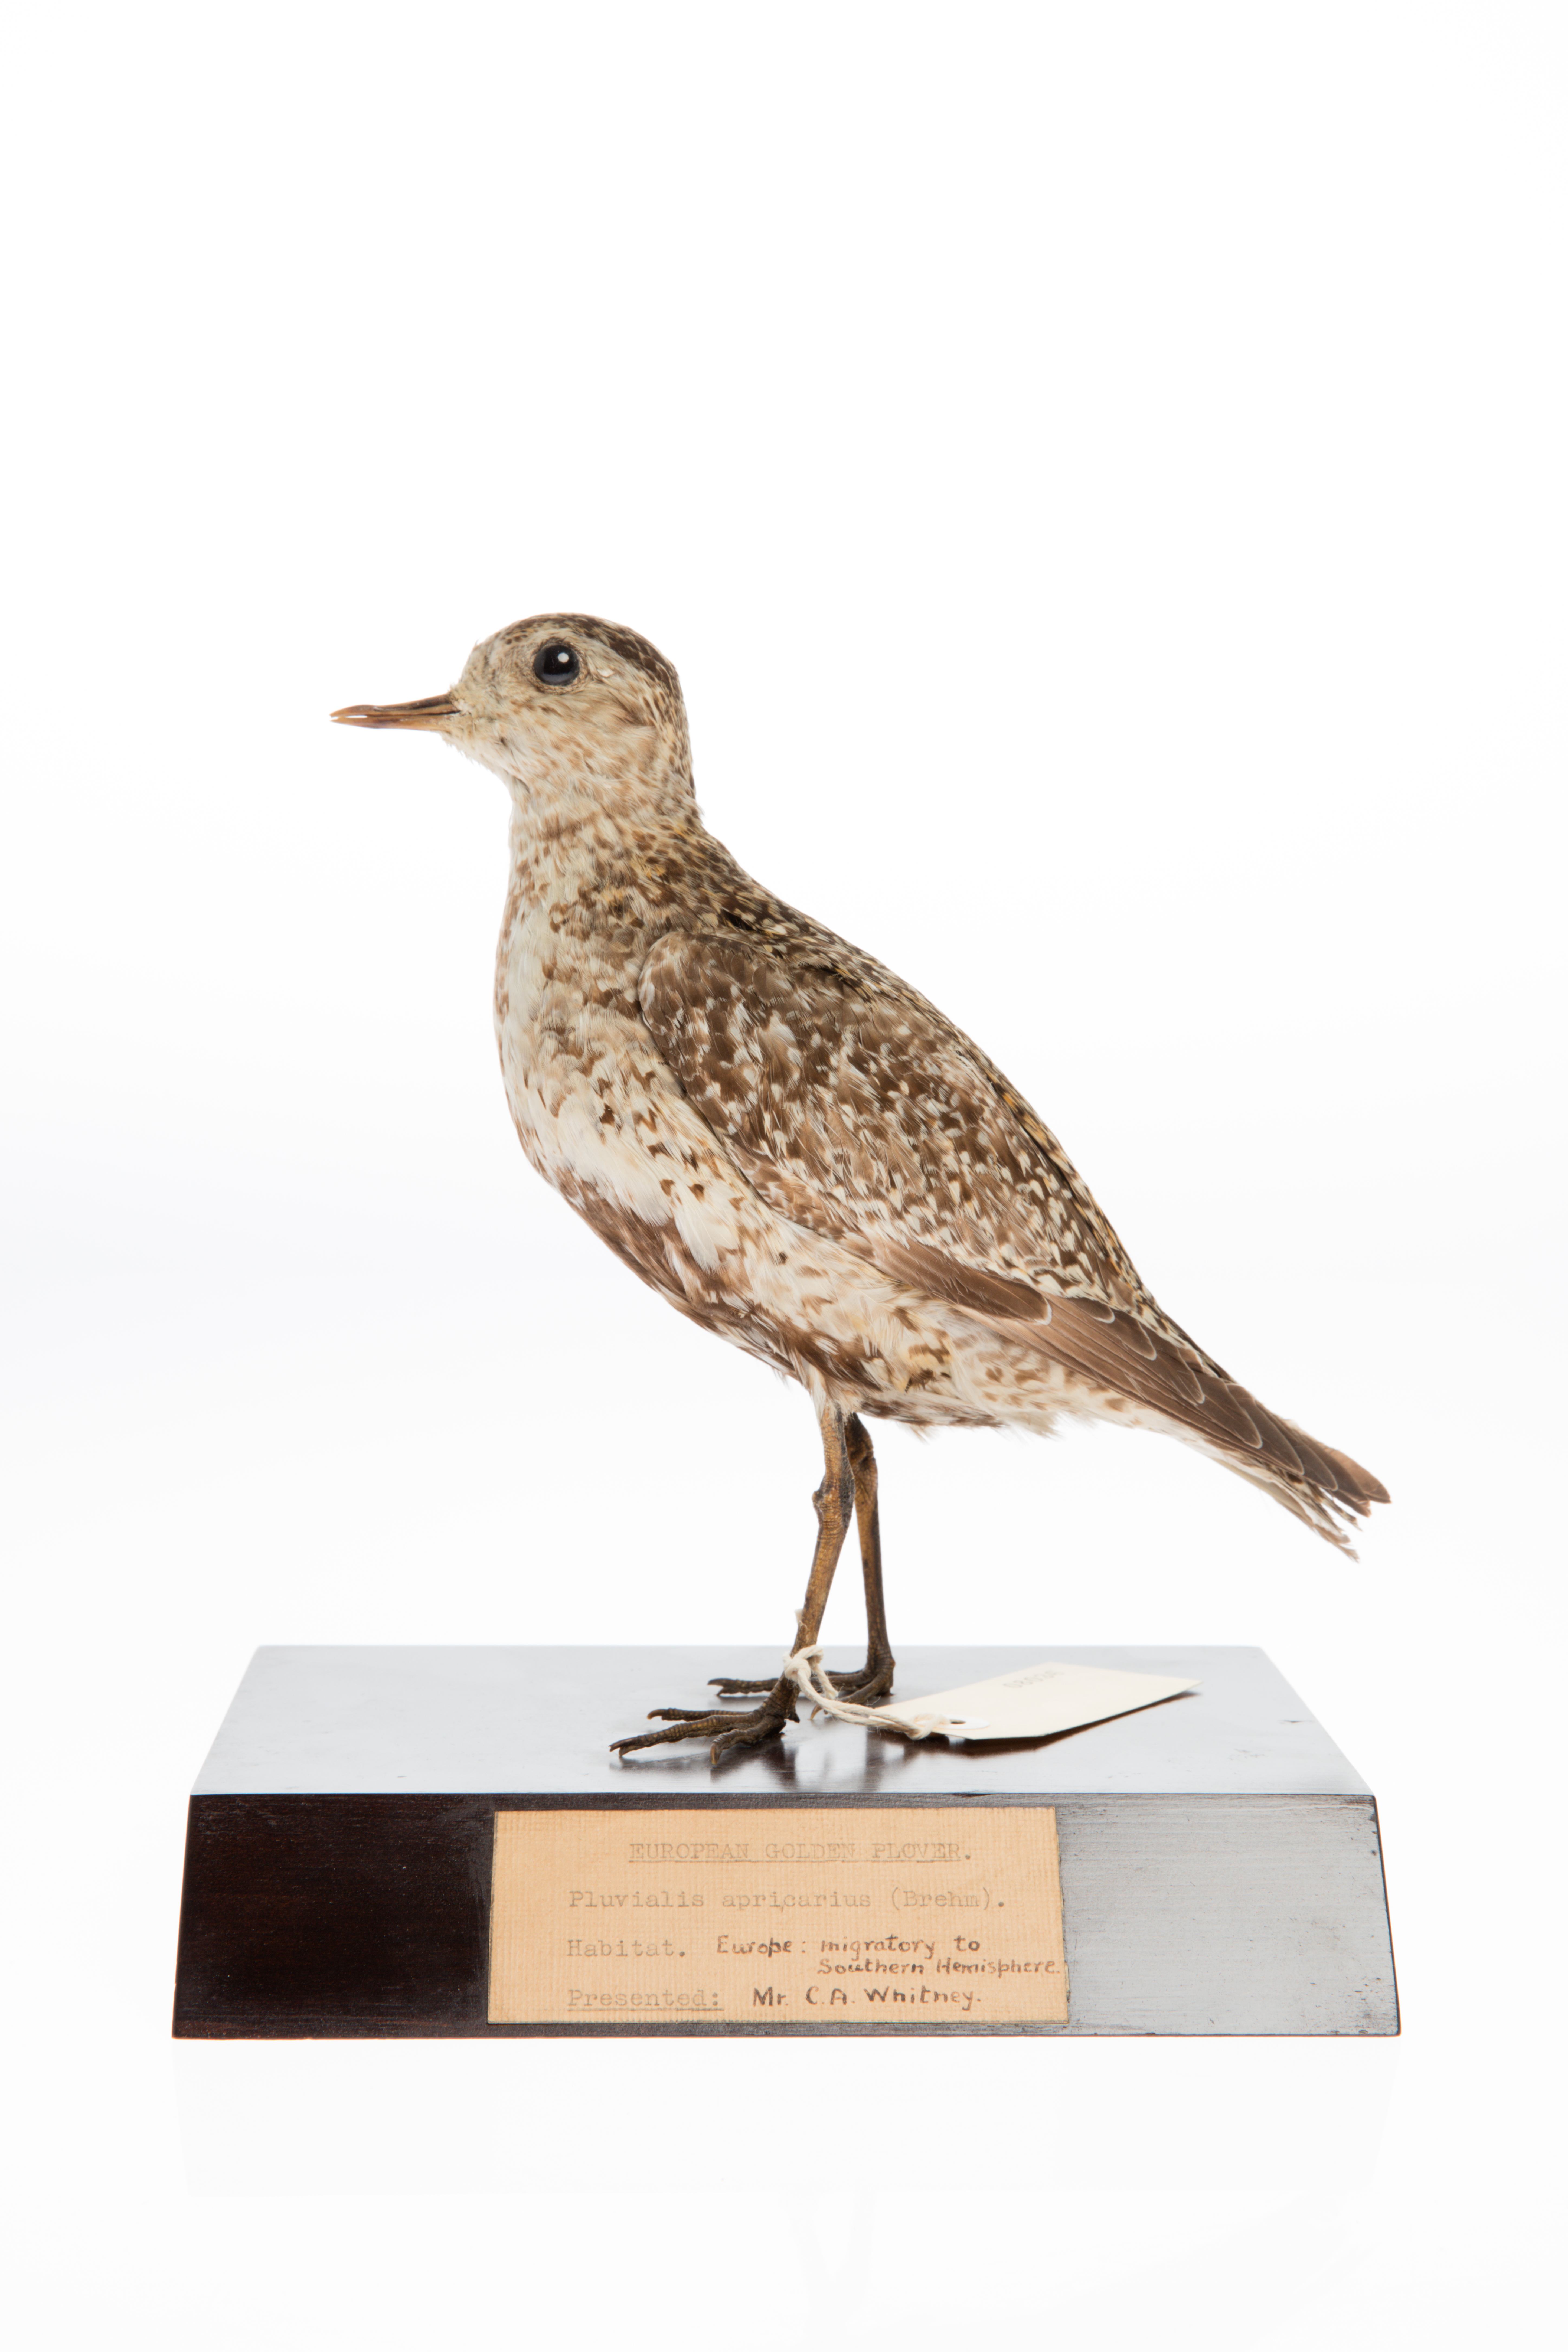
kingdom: Animalia
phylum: Chordata
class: Aves
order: Charadriiformes
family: Charadriidae
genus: Pluvialis
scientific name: Pluvialis apricaria
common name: European golden plover
